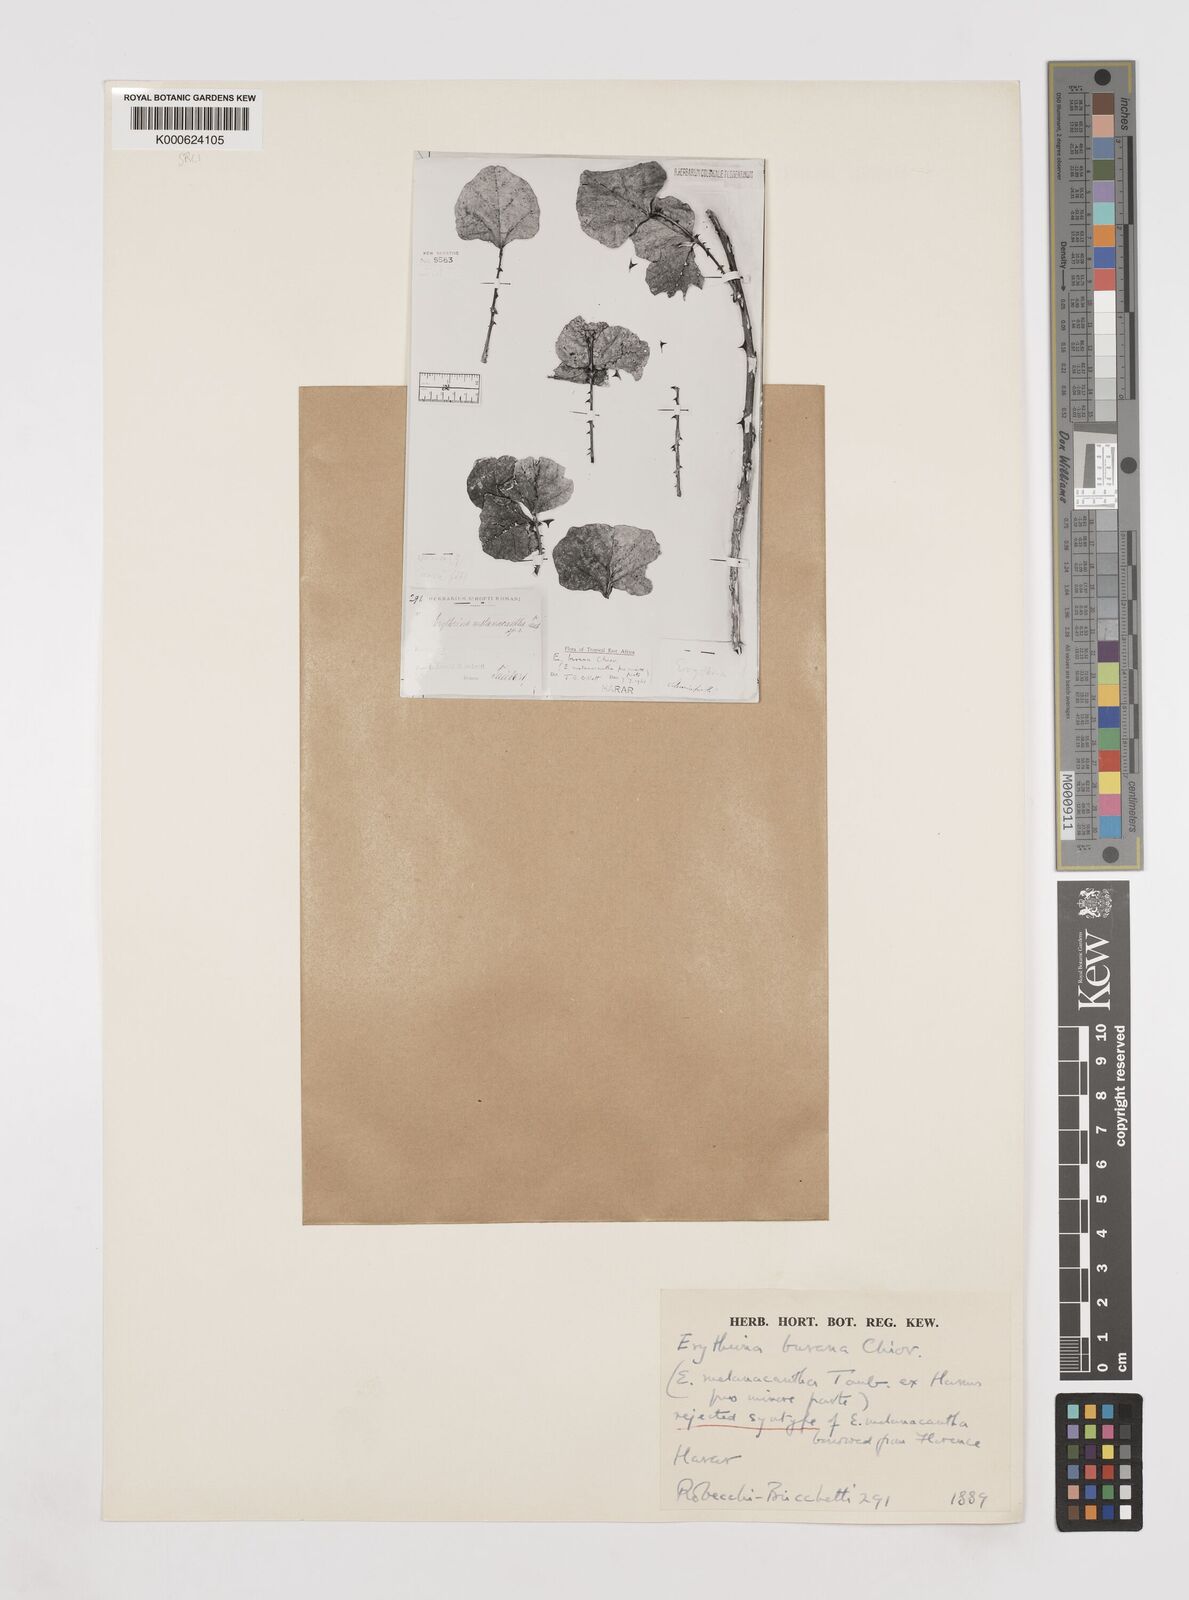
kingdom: Plantae
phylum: Tracheophyta
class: Magnoliopsida
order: Fabales
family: Fabaceae
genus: Erythrina
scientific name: Erythrina burana
